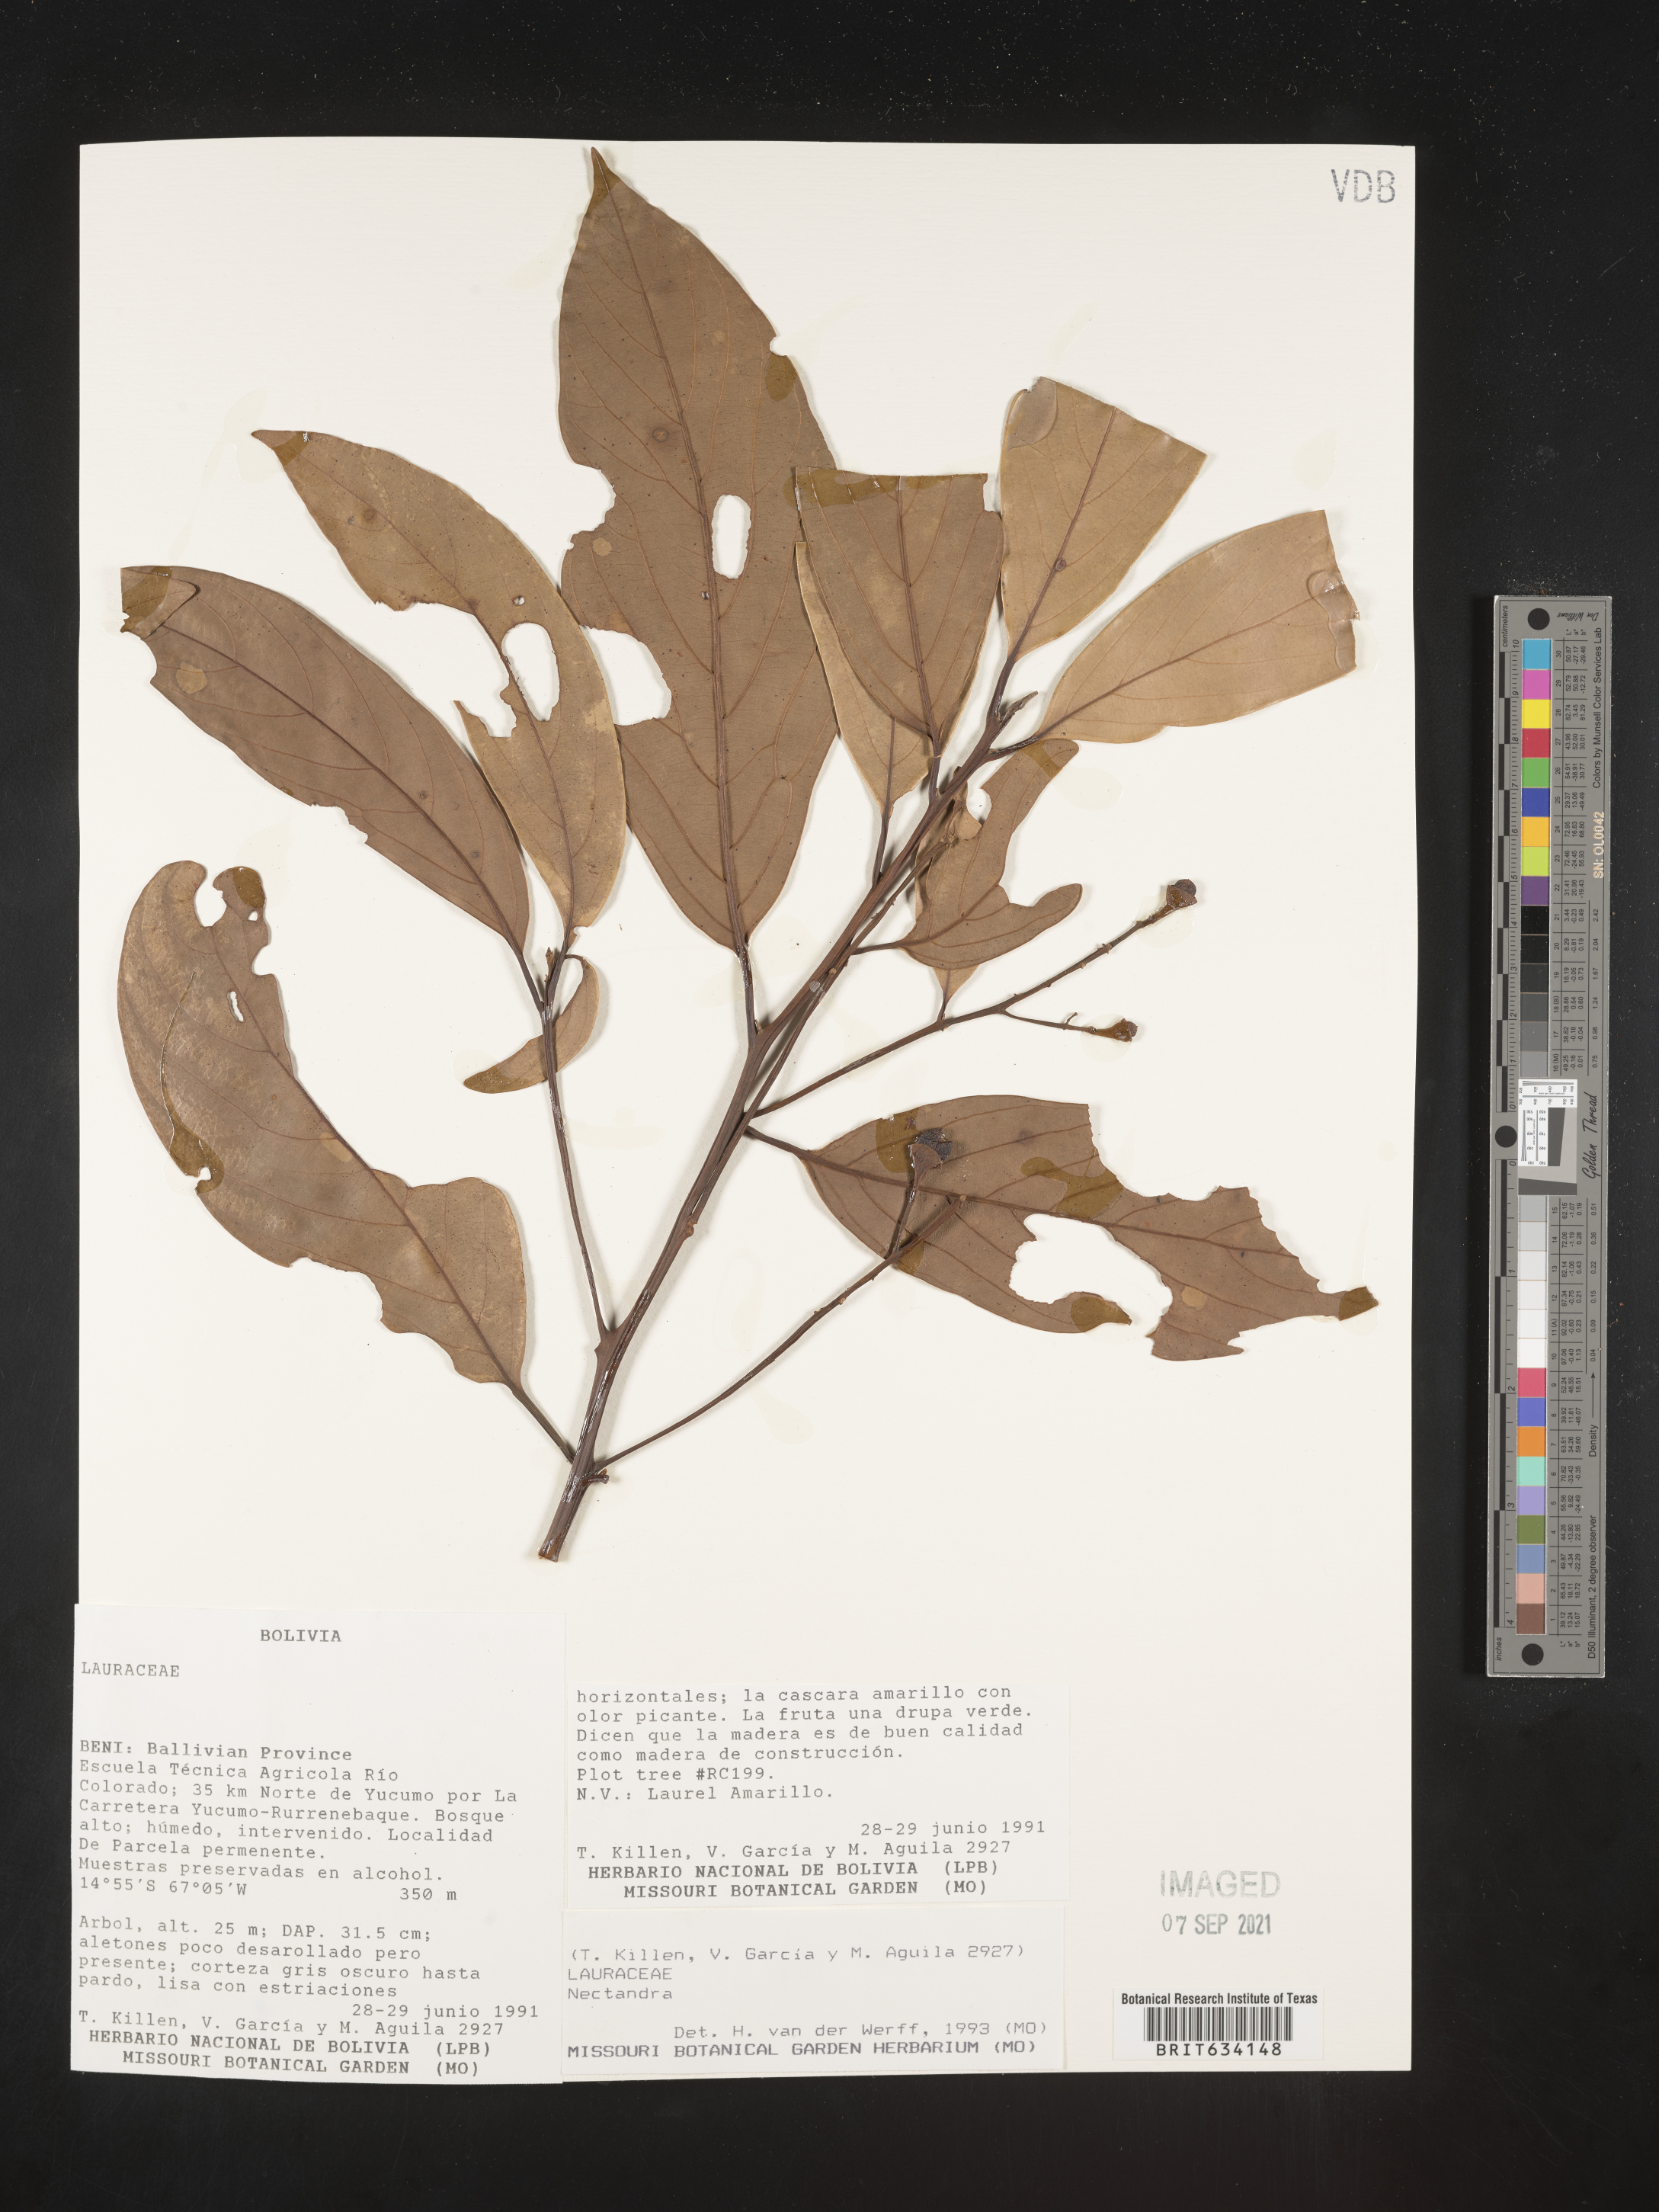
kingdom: Plantae
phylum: Tracheophyta
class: Magnoliopsida
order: Laurales
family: Lauraceae
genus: Nectandra
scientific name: Nectandra
